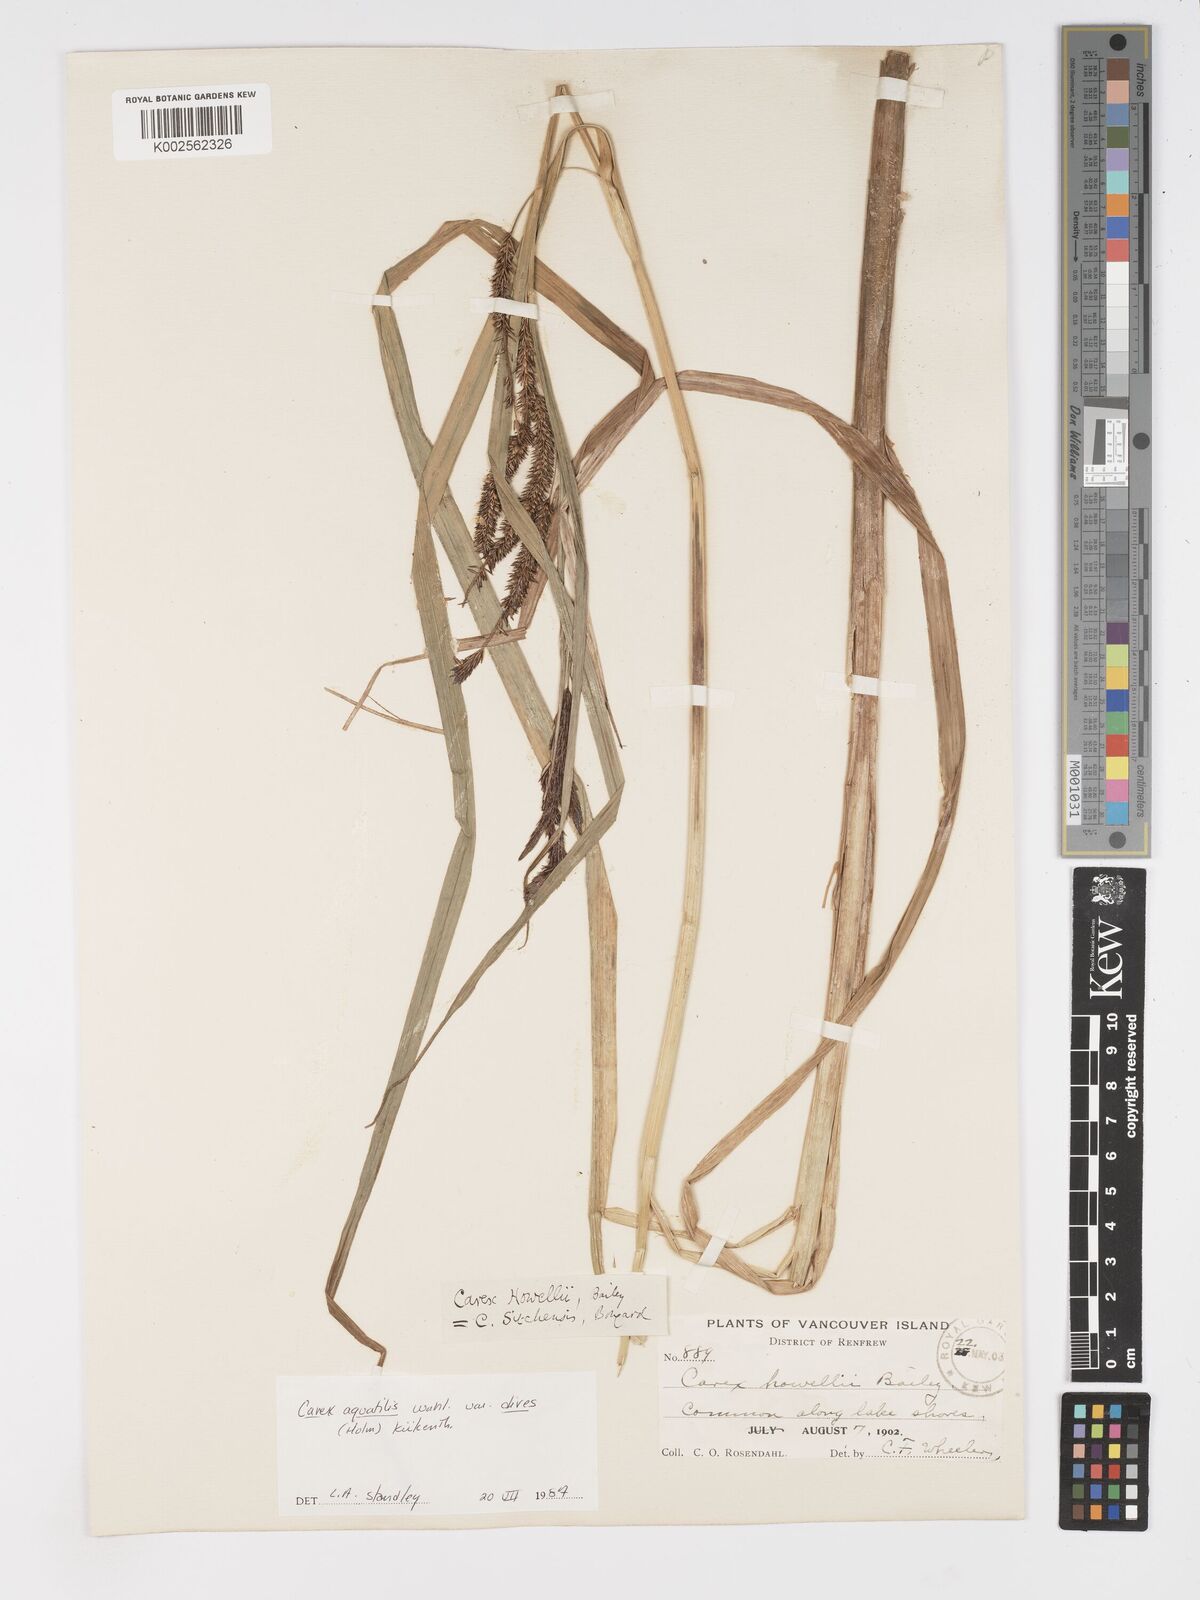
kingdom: Plantae
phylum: Tracheophyta
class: Liliopsida
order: Poales
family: Cyperaceae
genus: Carex
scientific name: Carex aquatilis
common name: Water sedge
